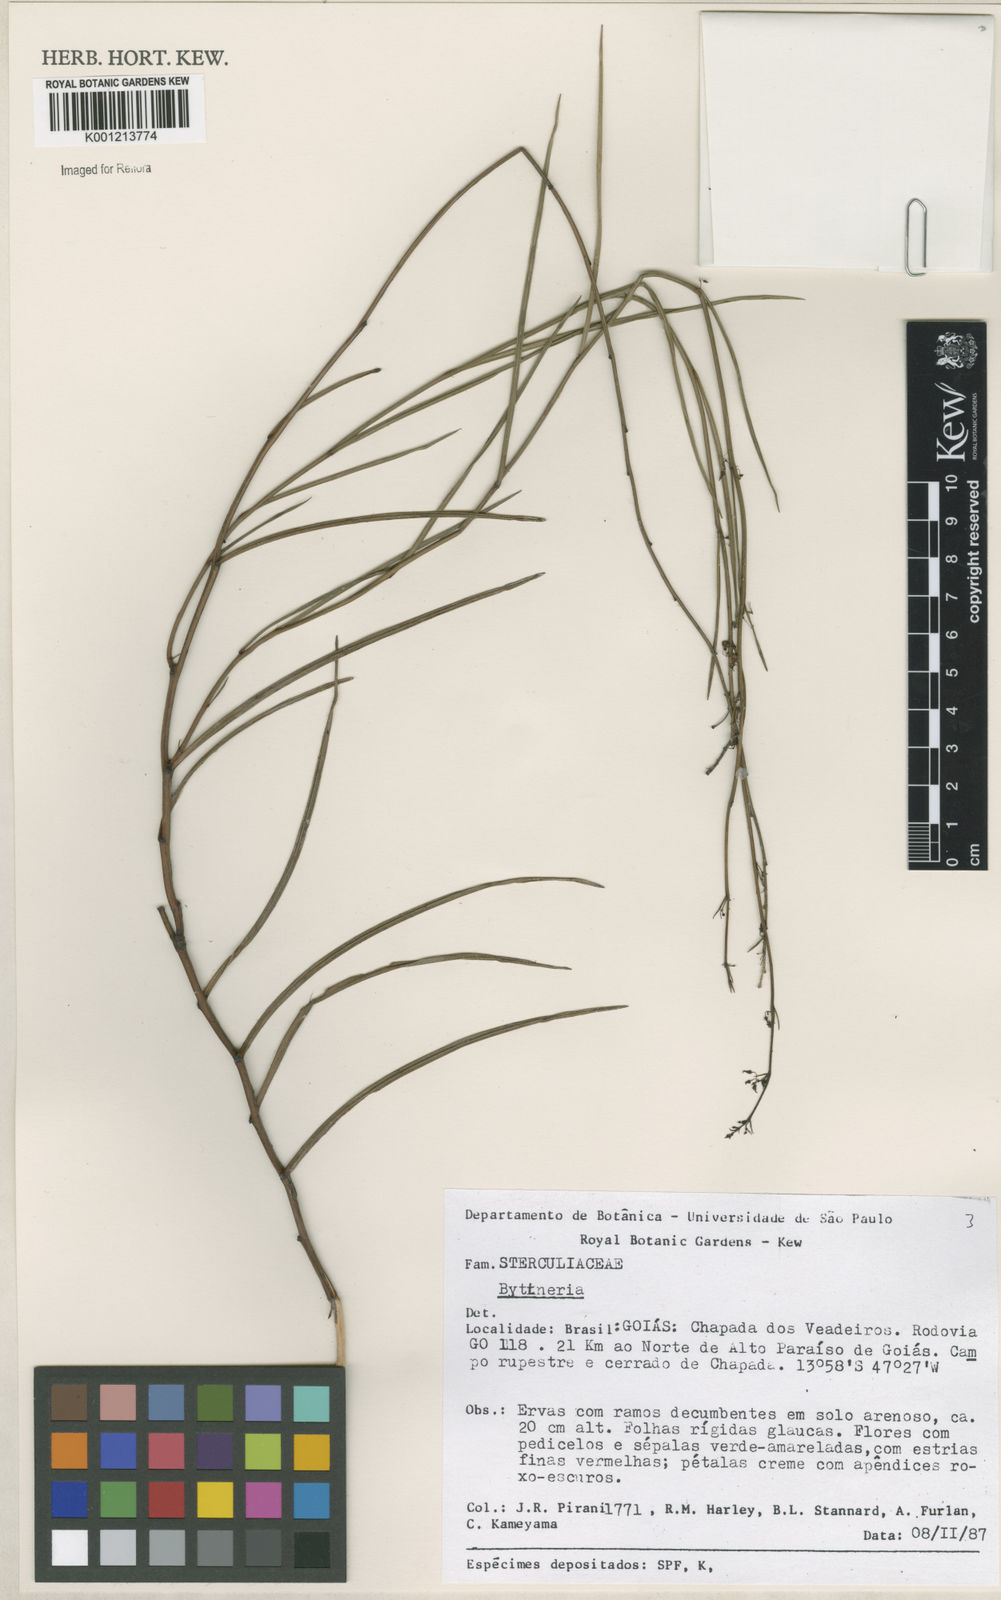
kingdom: Plantae
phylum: Tracheophyta
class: Magnoliopsida
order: Malvales
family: Malvaceae
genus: Byttneria
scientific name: Byttneria
